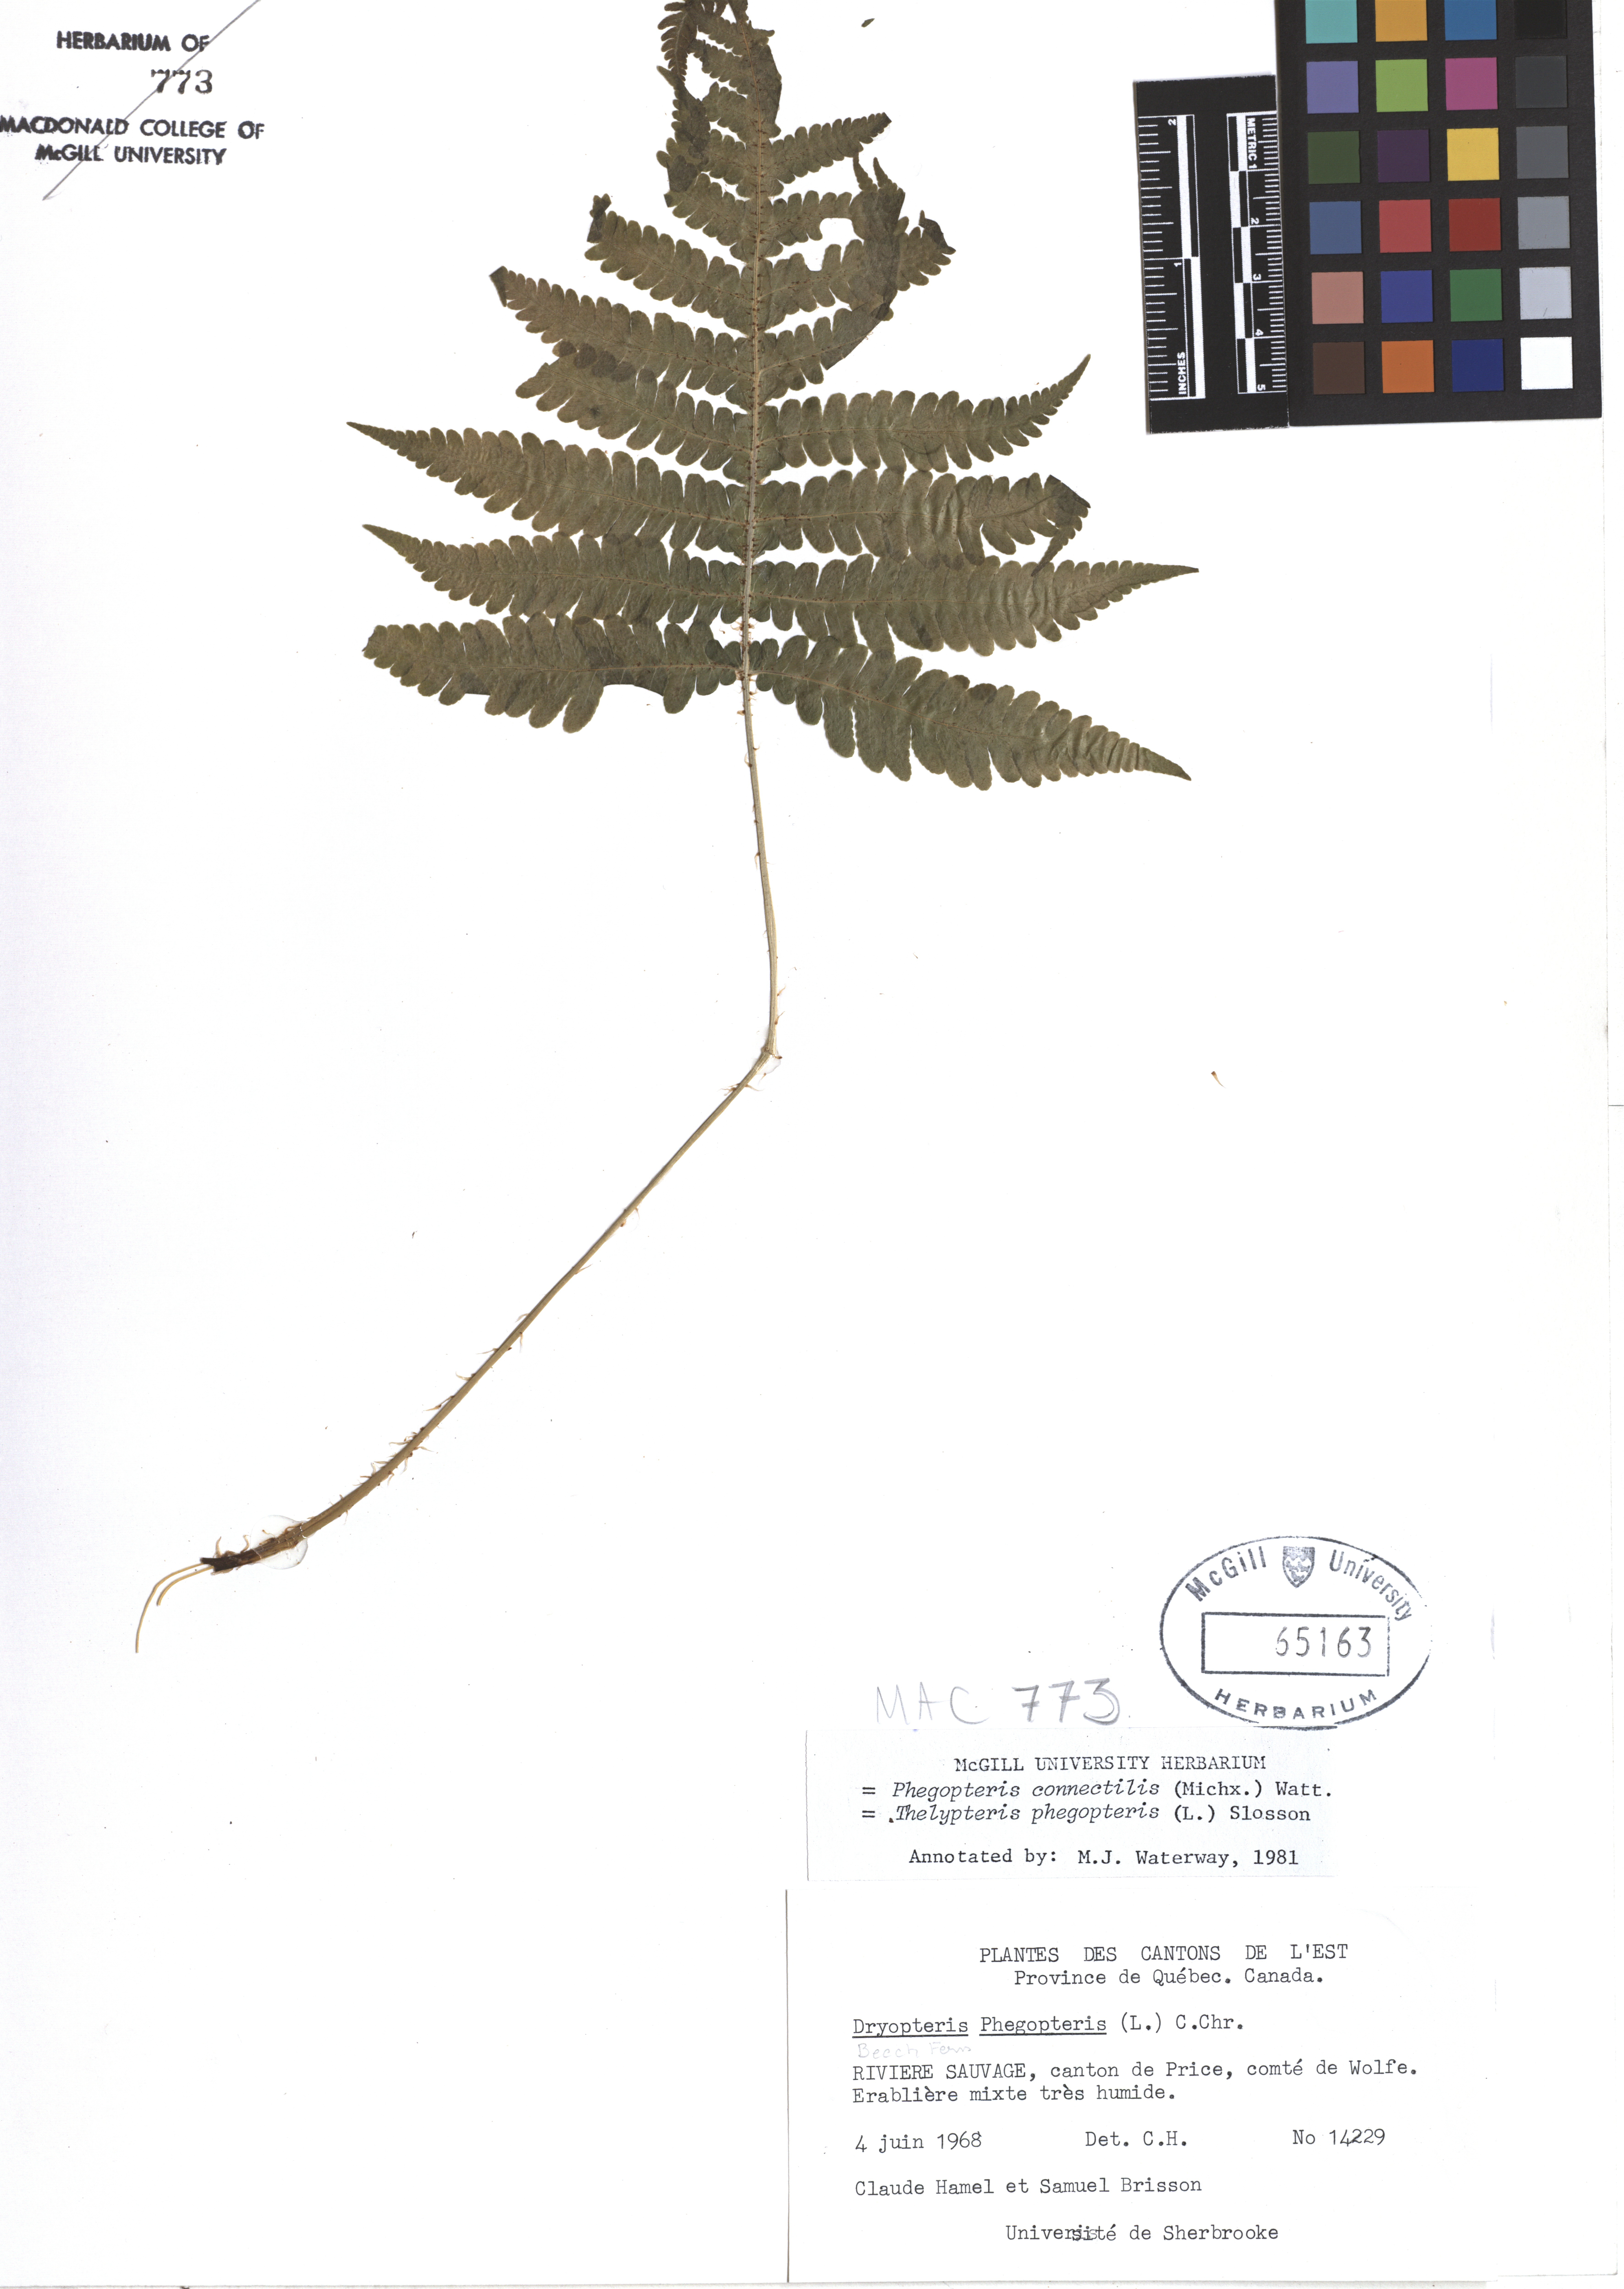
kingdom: Plantae
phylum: Tracheophyta
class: Polypodiopsida
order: Polypodiales
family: Thelypteridaceae
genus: Phegopteris
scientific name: Phegopteris connectilis
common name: Beech fern
